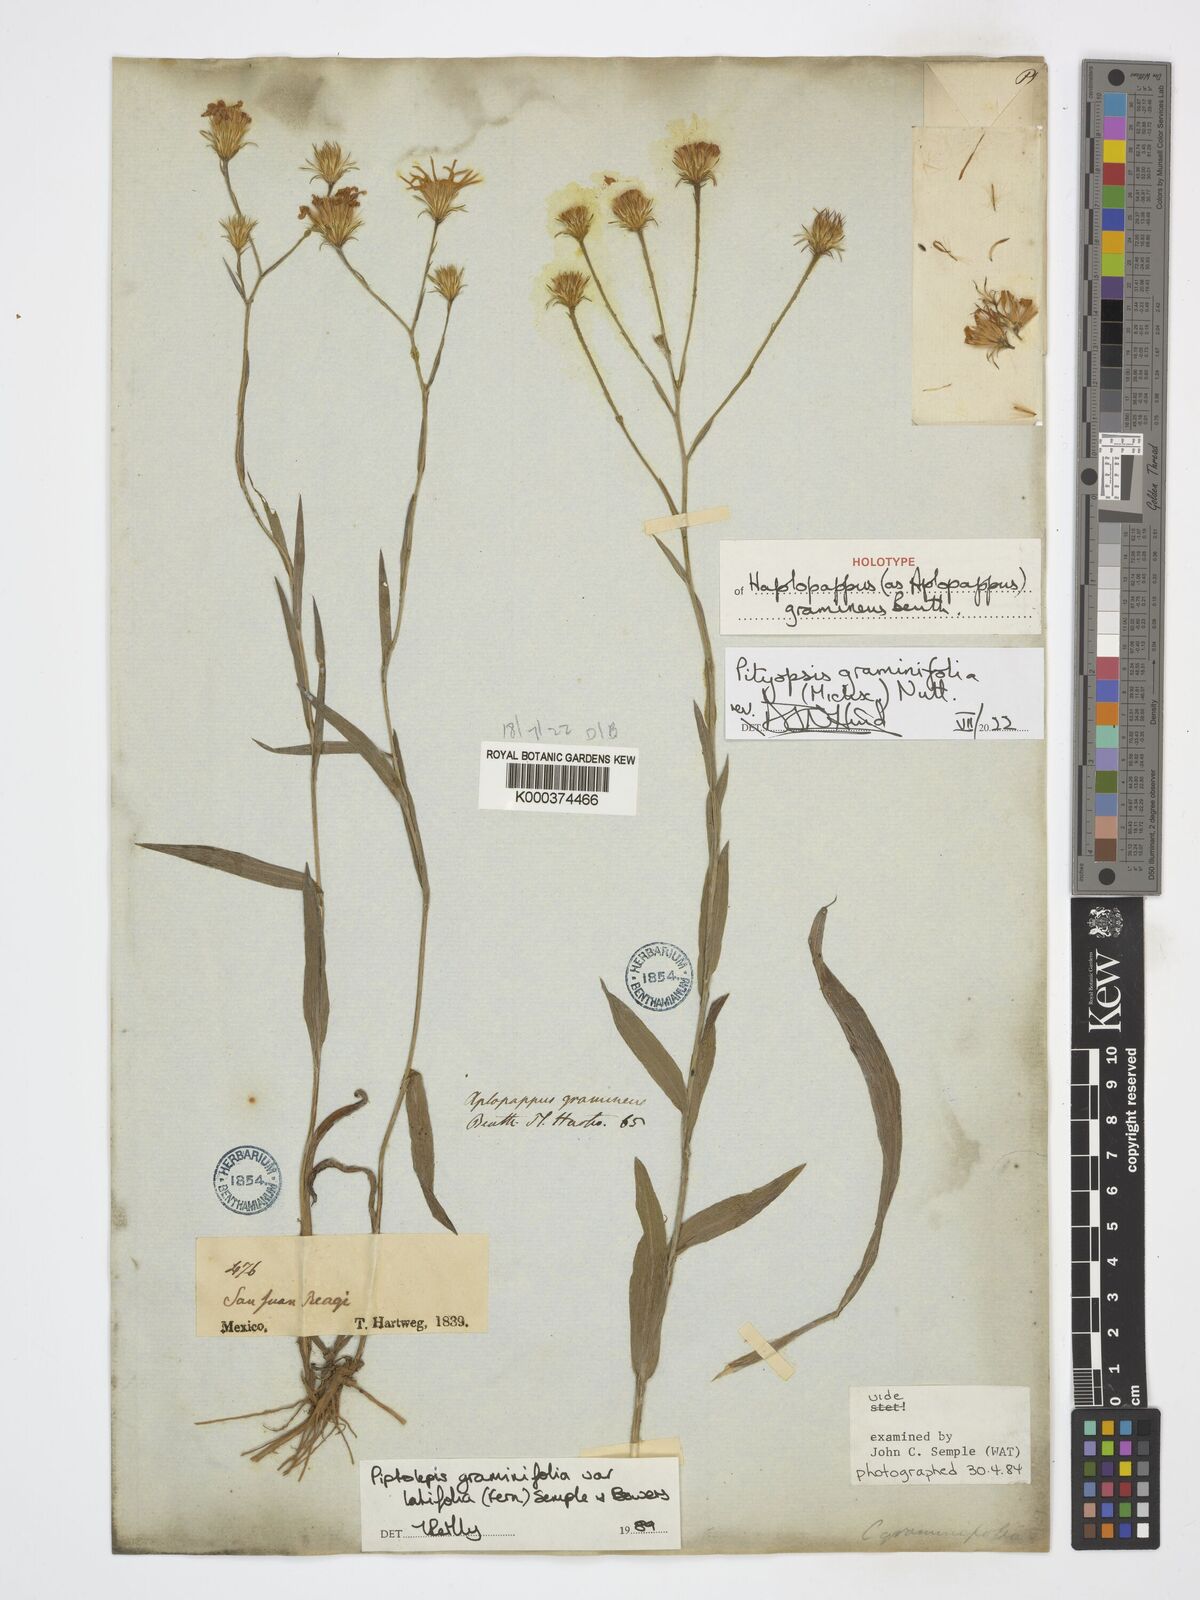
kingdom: Plantae
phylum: Tracheophyta
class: Magnoliopsida
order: Asterales
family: Asteraceae
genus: Pityopsis
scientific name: Pityopsis graminifolia
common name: Grass-leaf golden-aster
